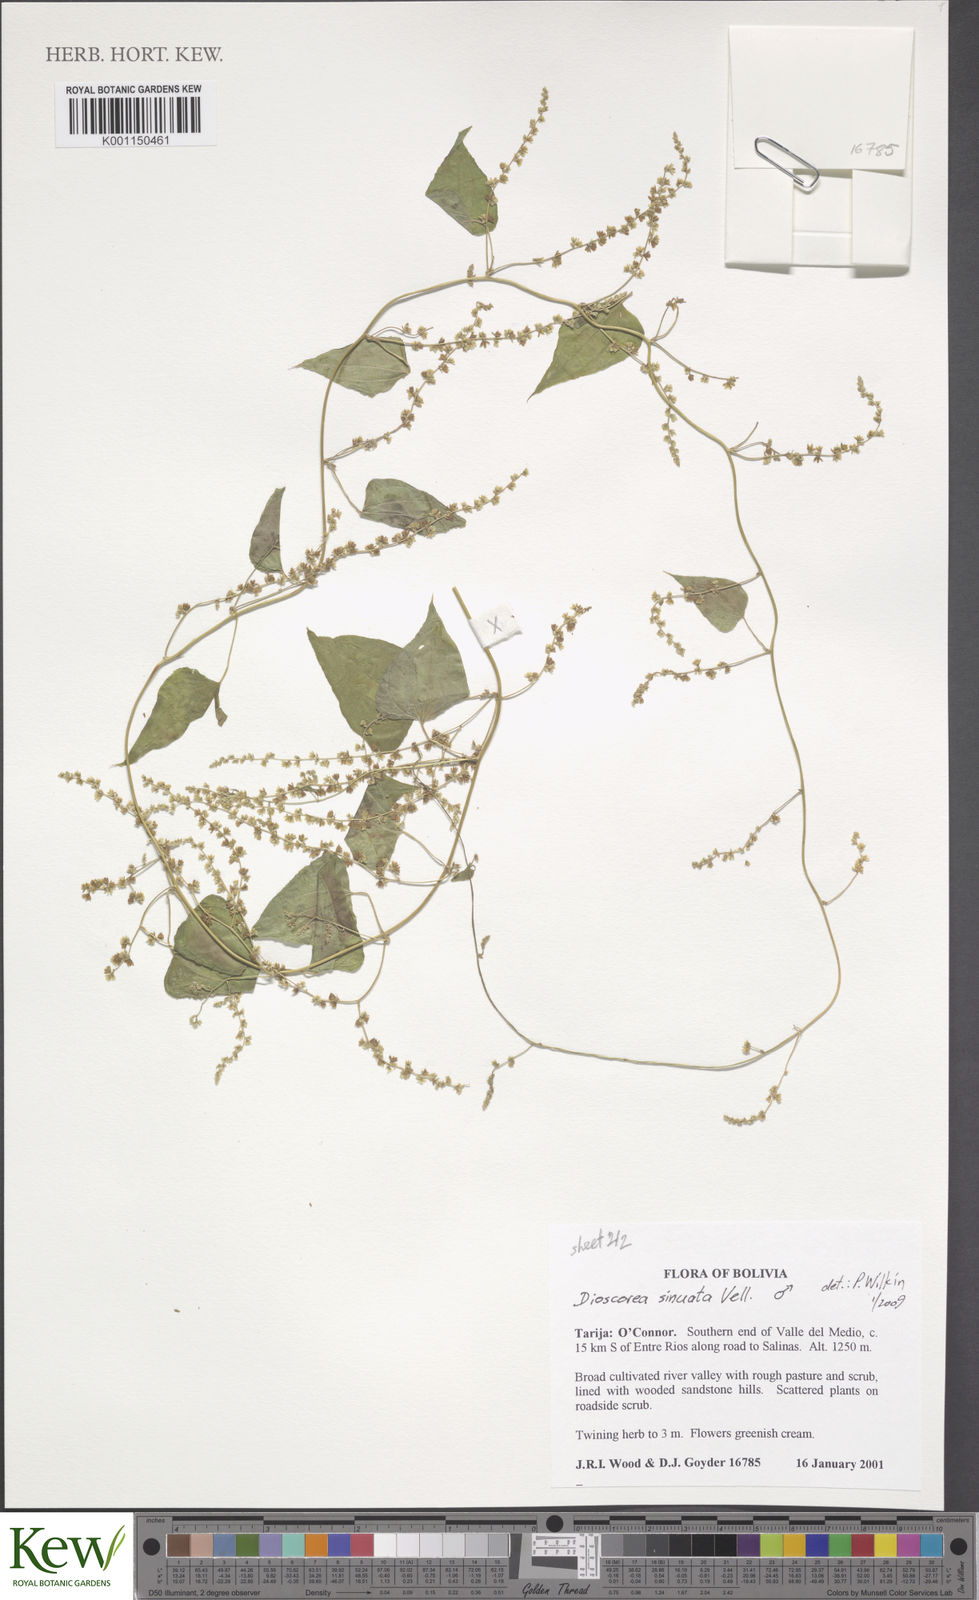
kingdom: Plantae
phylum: Tracheophyta
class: Liliopsida
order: Dioscoreales
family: Dioscoreaceae
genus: Dioscorea
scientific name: Dioscorea sinuata
